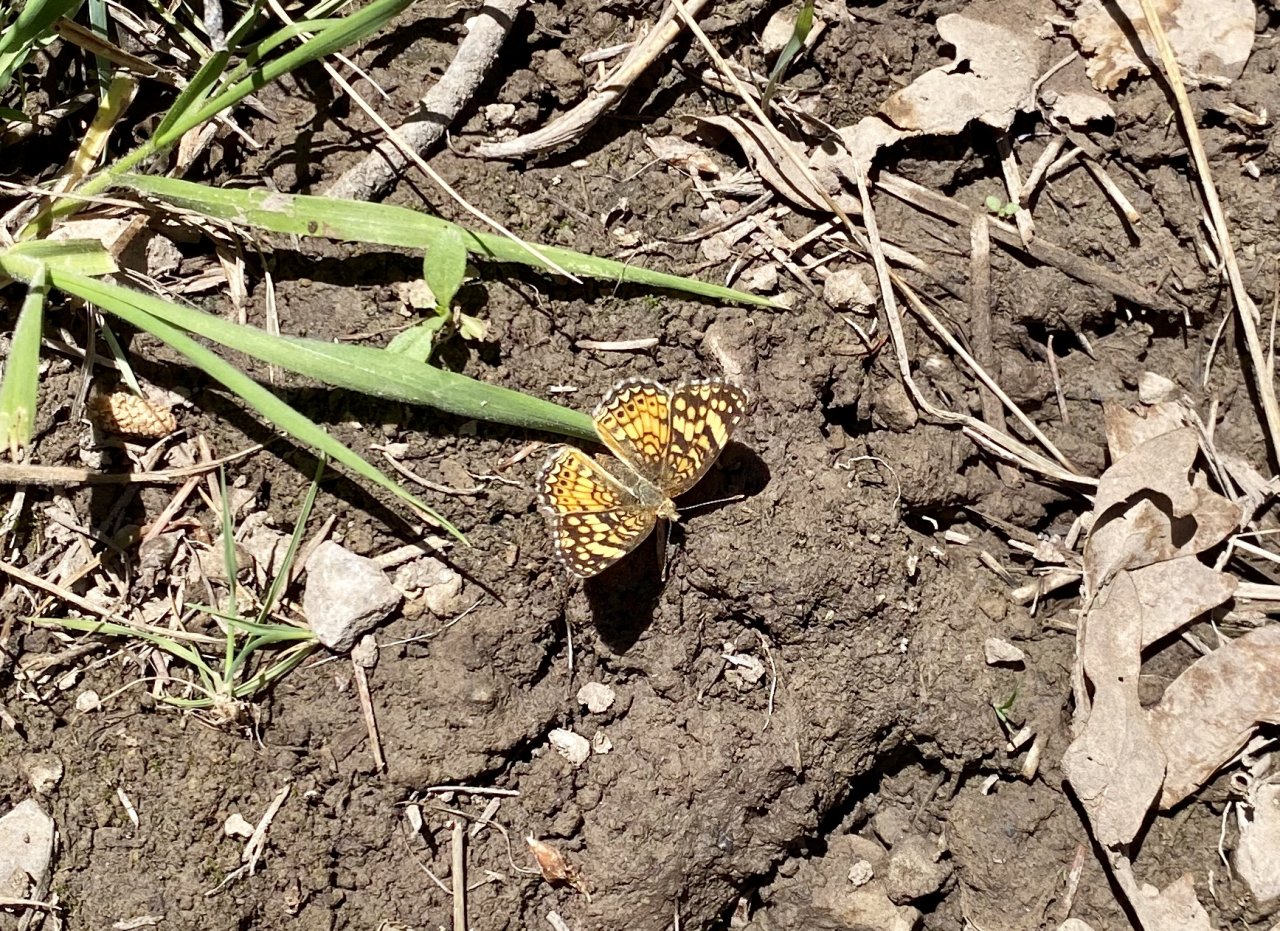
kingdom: Animalia
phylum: Arthropoda
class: Insecta
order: Lepidoptera
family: Nymphalidae
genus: Eresia
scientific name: Eresia aveyrona
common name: Mylitta Crescent
